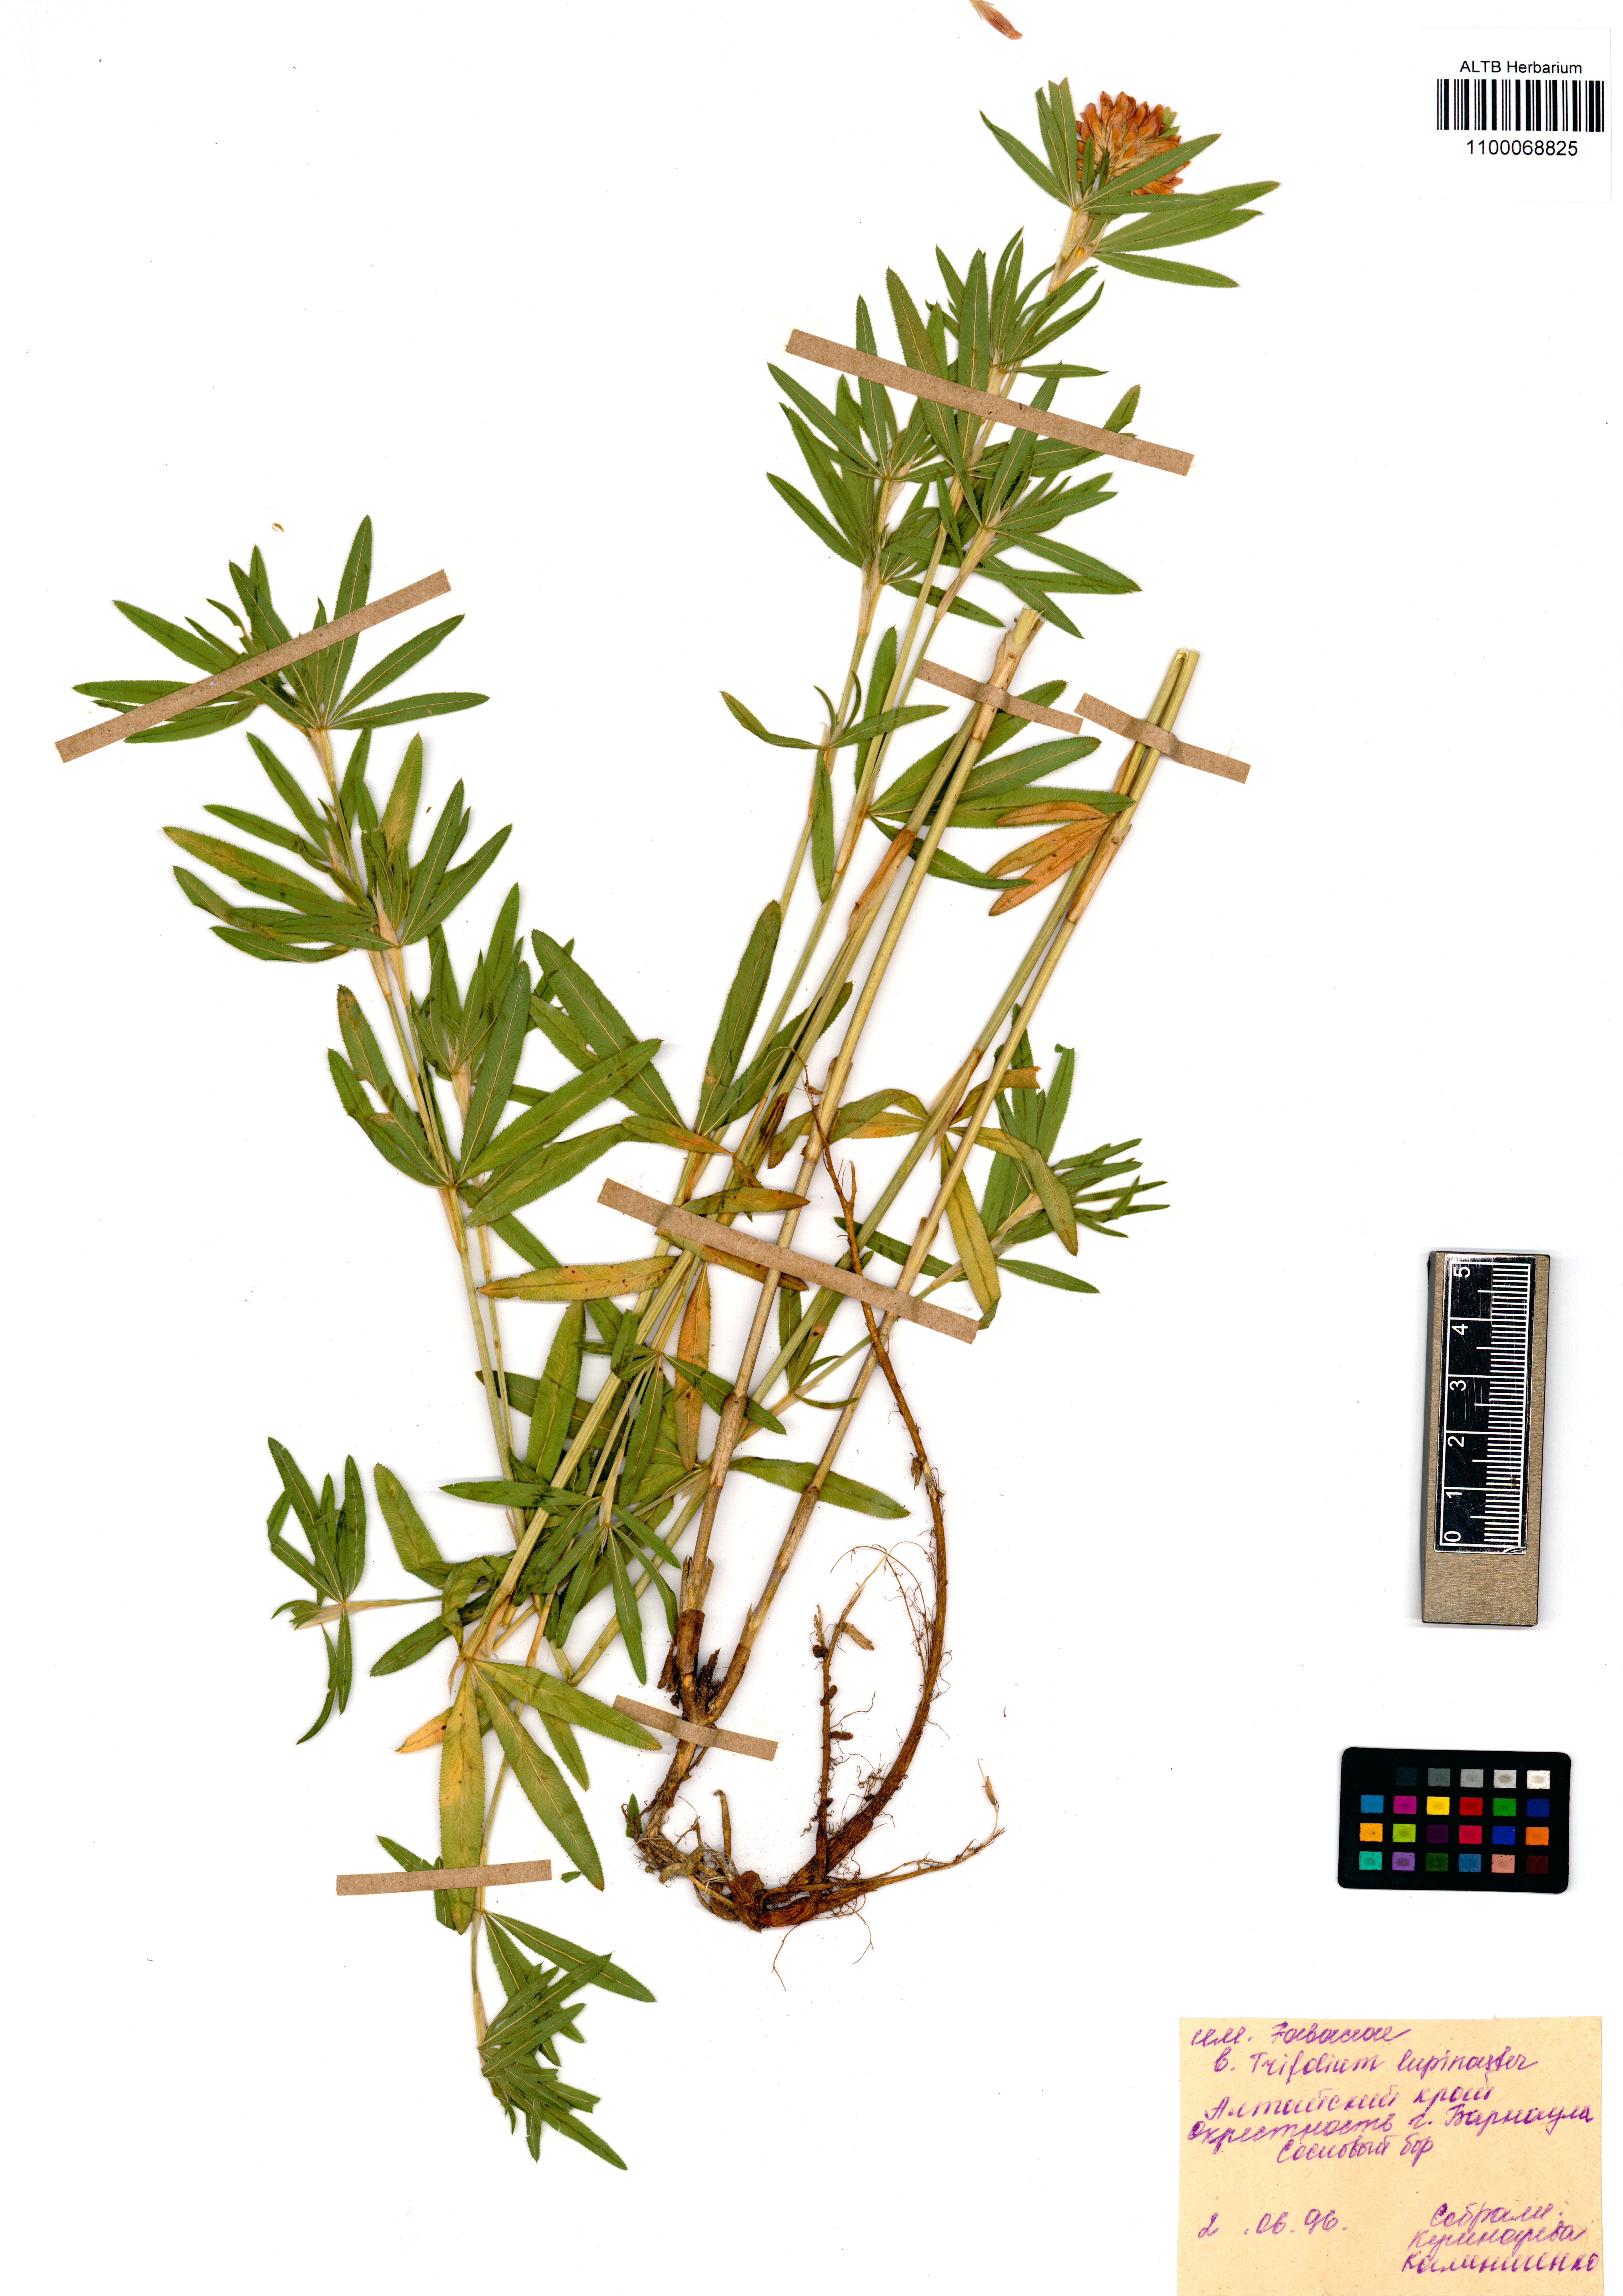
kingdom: Plantae
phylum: Tracheophyta
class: Magnoliopsida
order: Fabales
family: Fabaceae
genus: Trifolium
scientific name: Trifolium lupinaster
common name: Lupine clover
